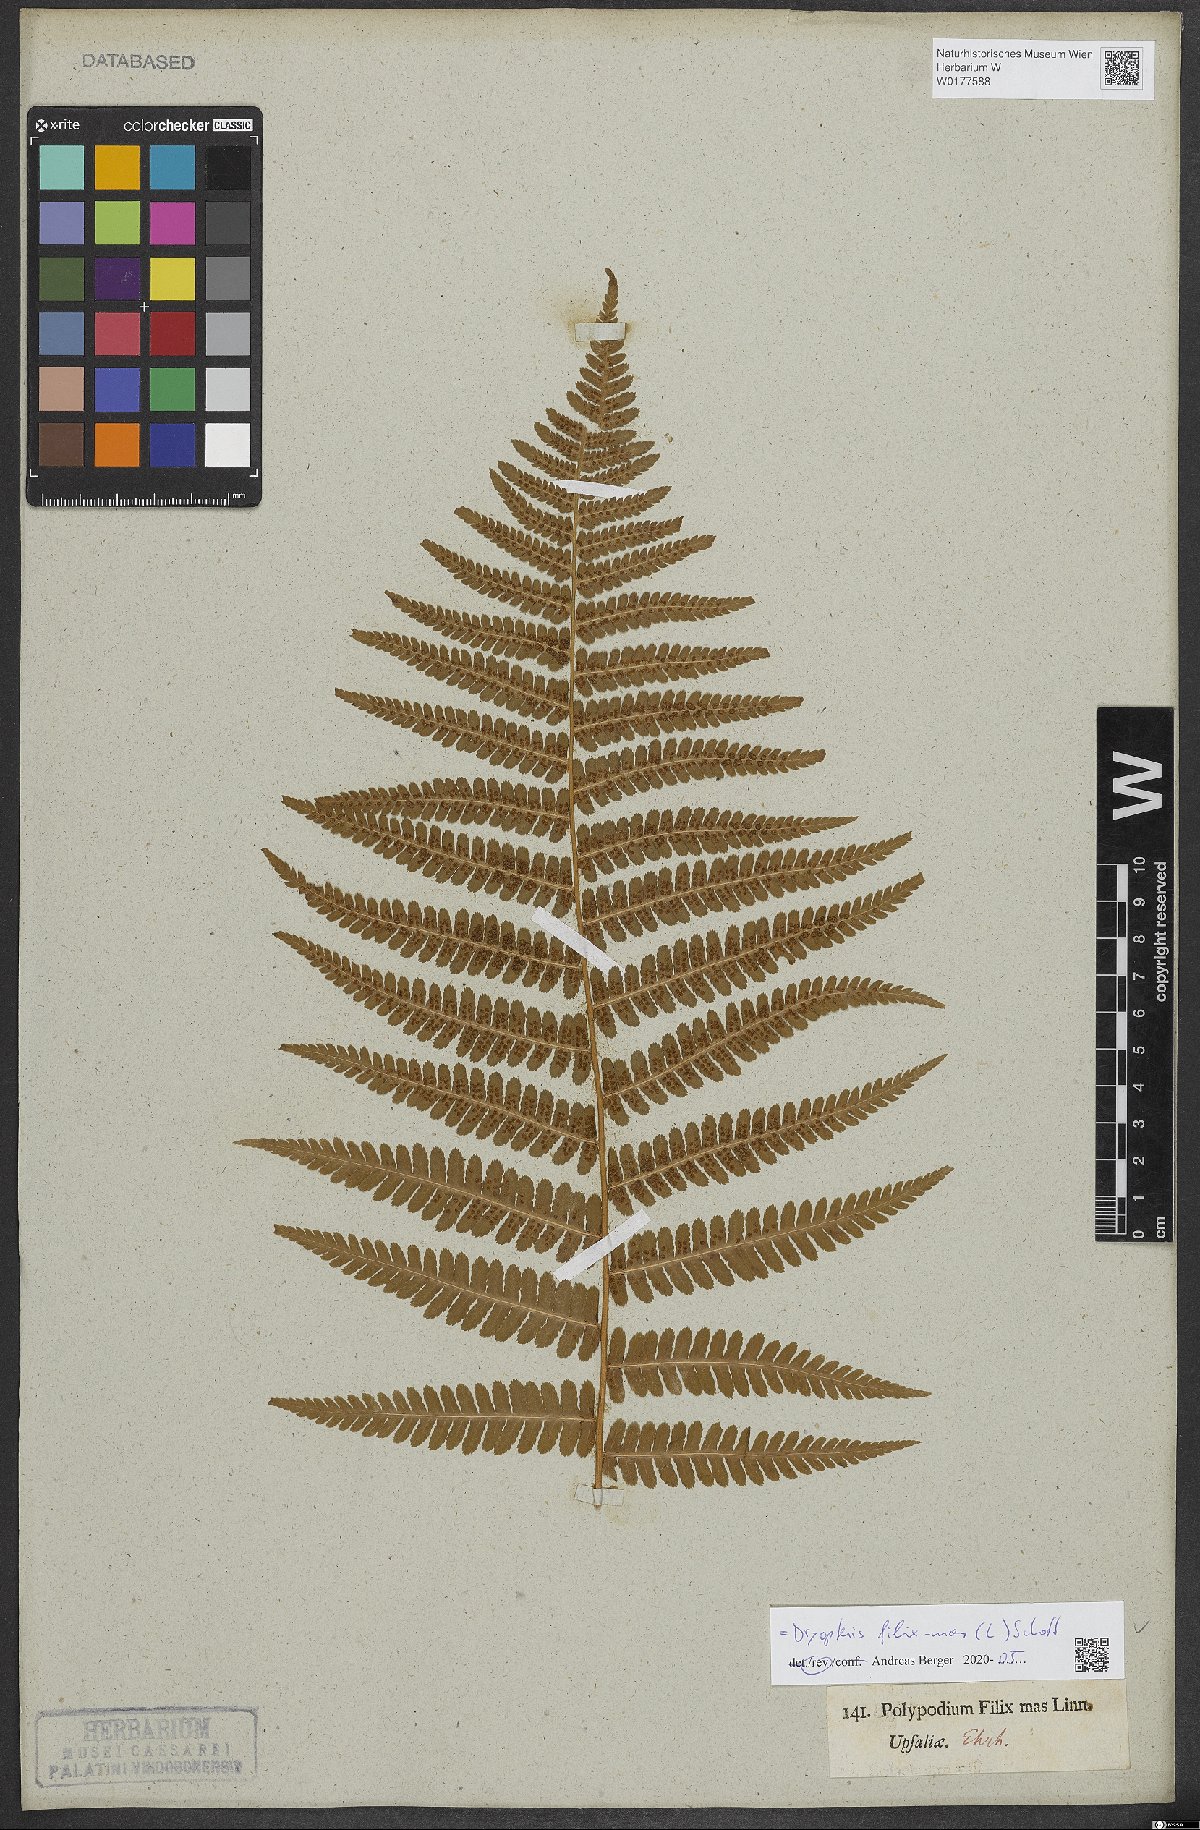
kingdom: Plantae
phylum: Tracheophyta
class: Polypodiopsida
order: Polypodiales
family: Dryopteridaceae
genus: Dryopteris
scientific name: Dryopteris filix-mas
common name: Male fern
